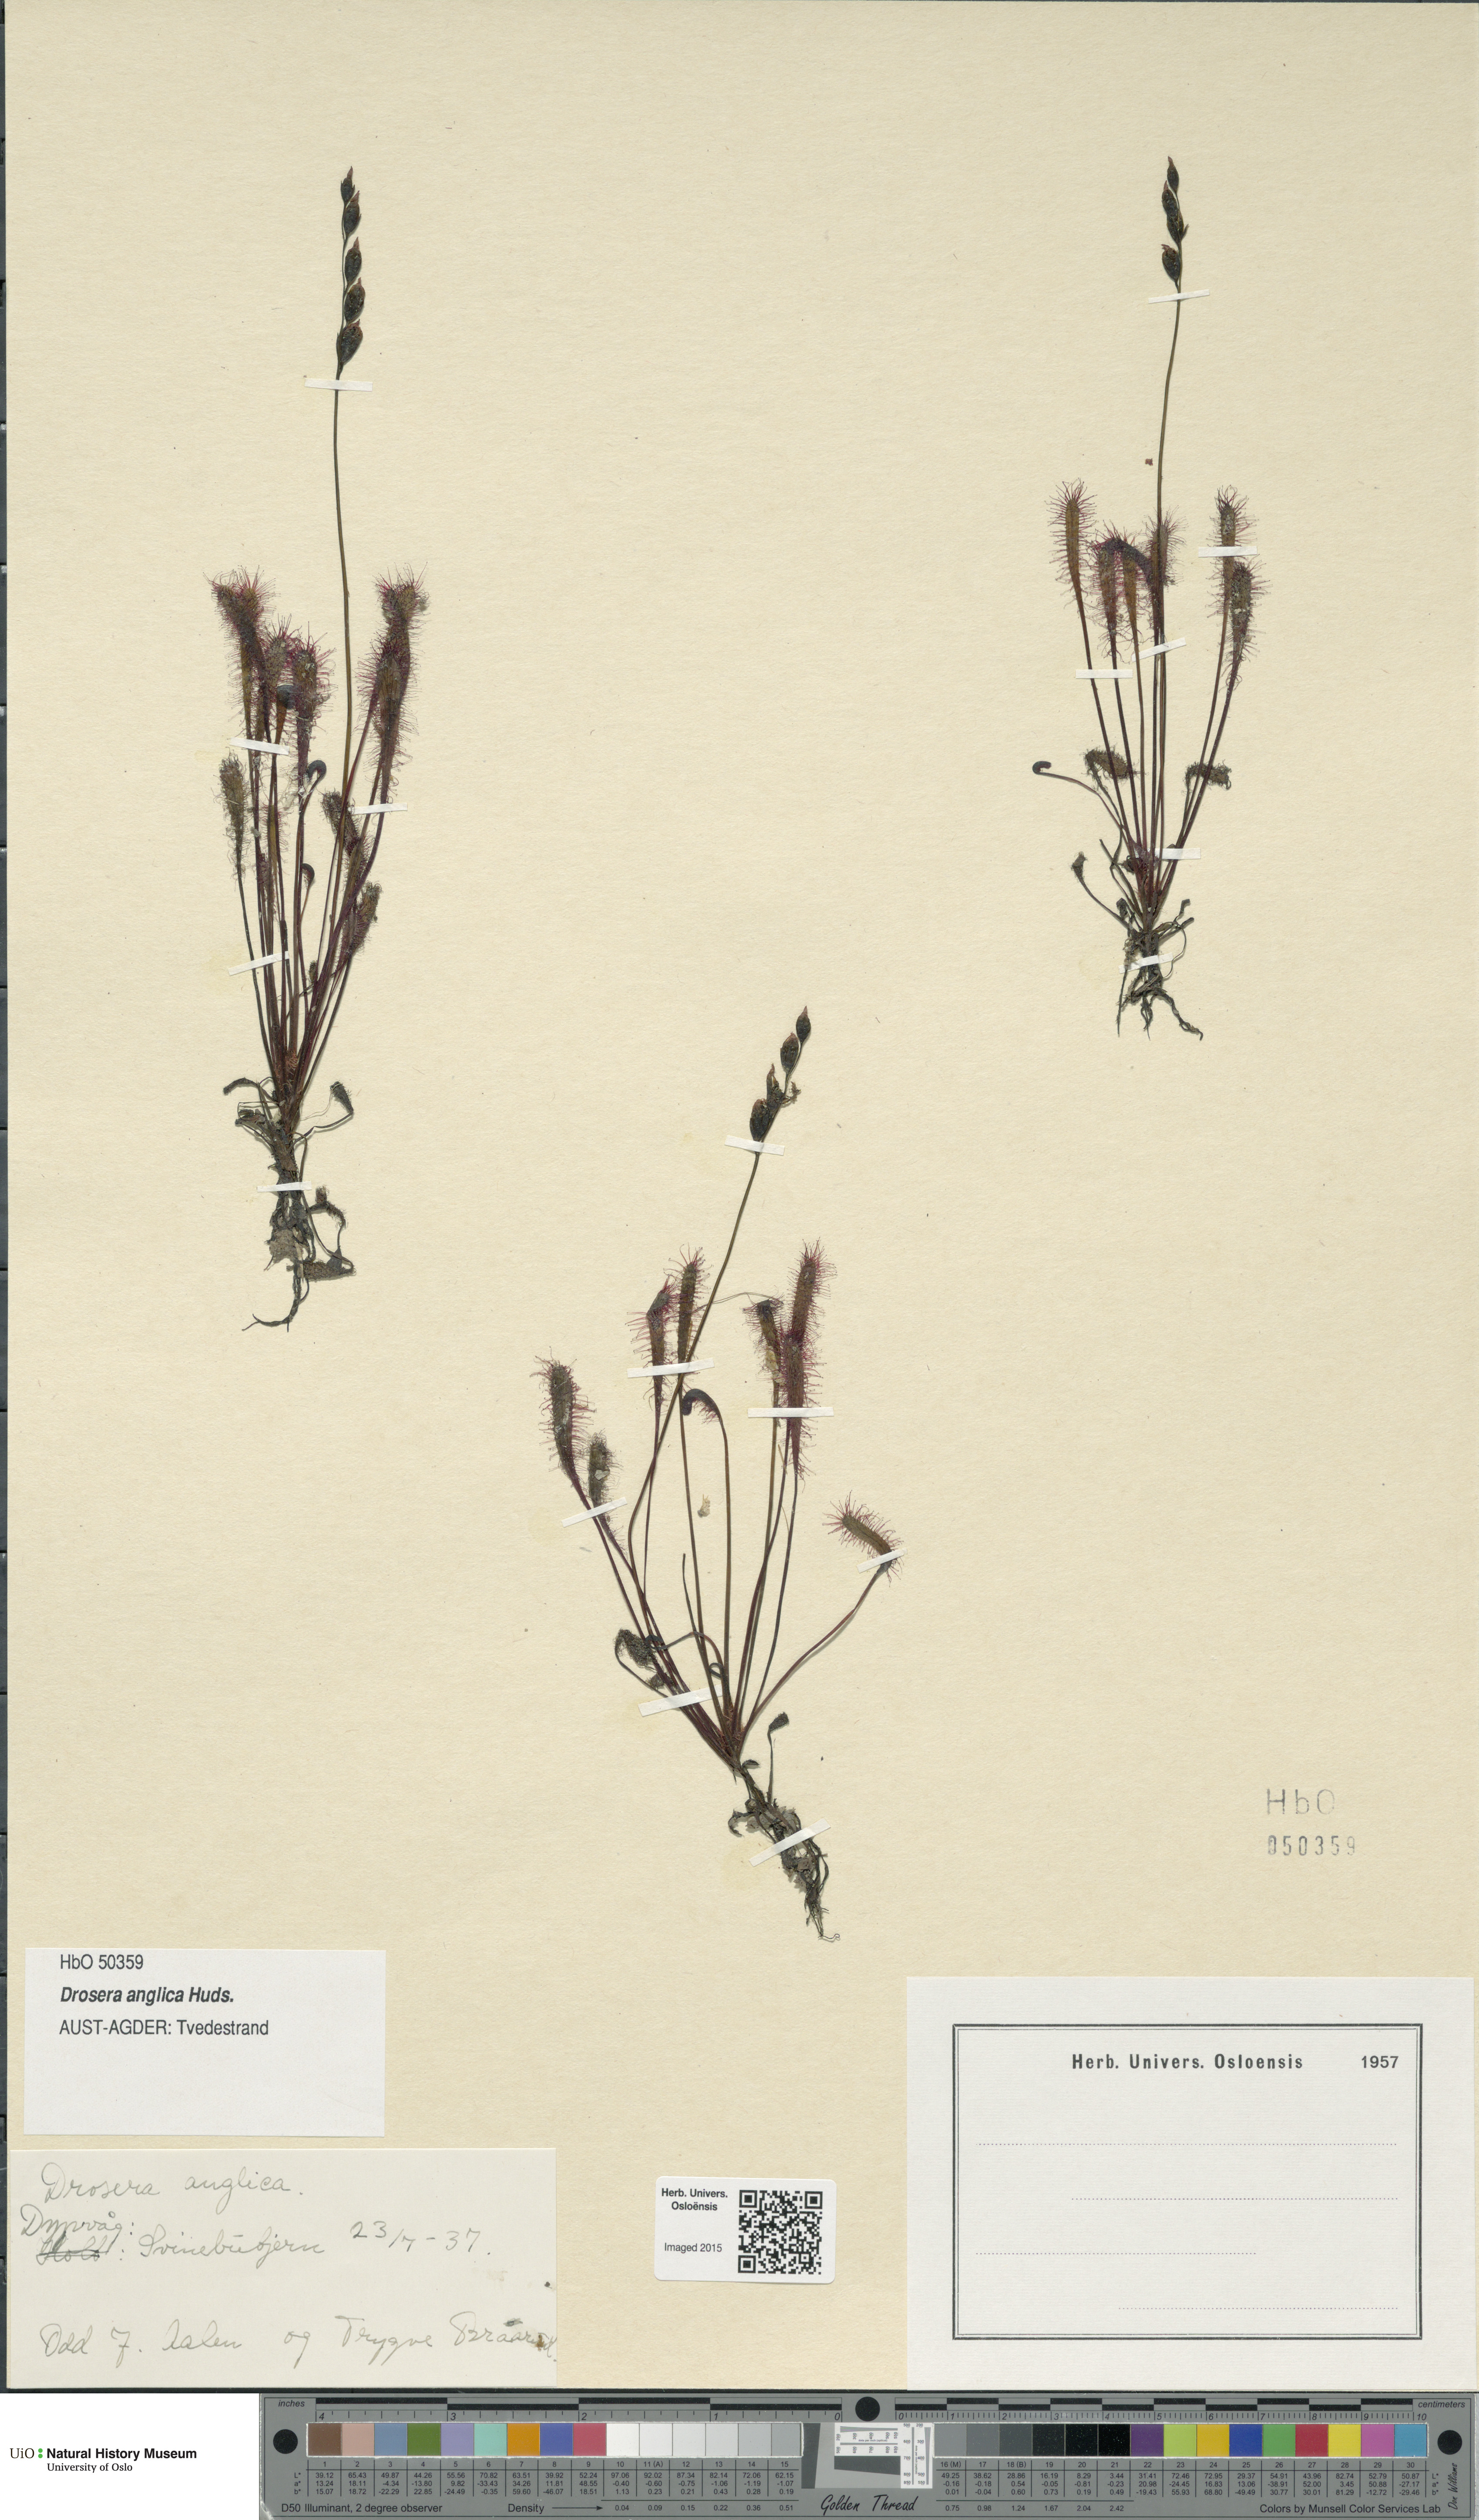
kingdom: Plantae
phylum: Tracheophyta
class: Magnoliopsida
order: Caryophyllales
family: Droseraceae
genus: Drosera
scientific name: Drosera anglica
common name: Great sundew
